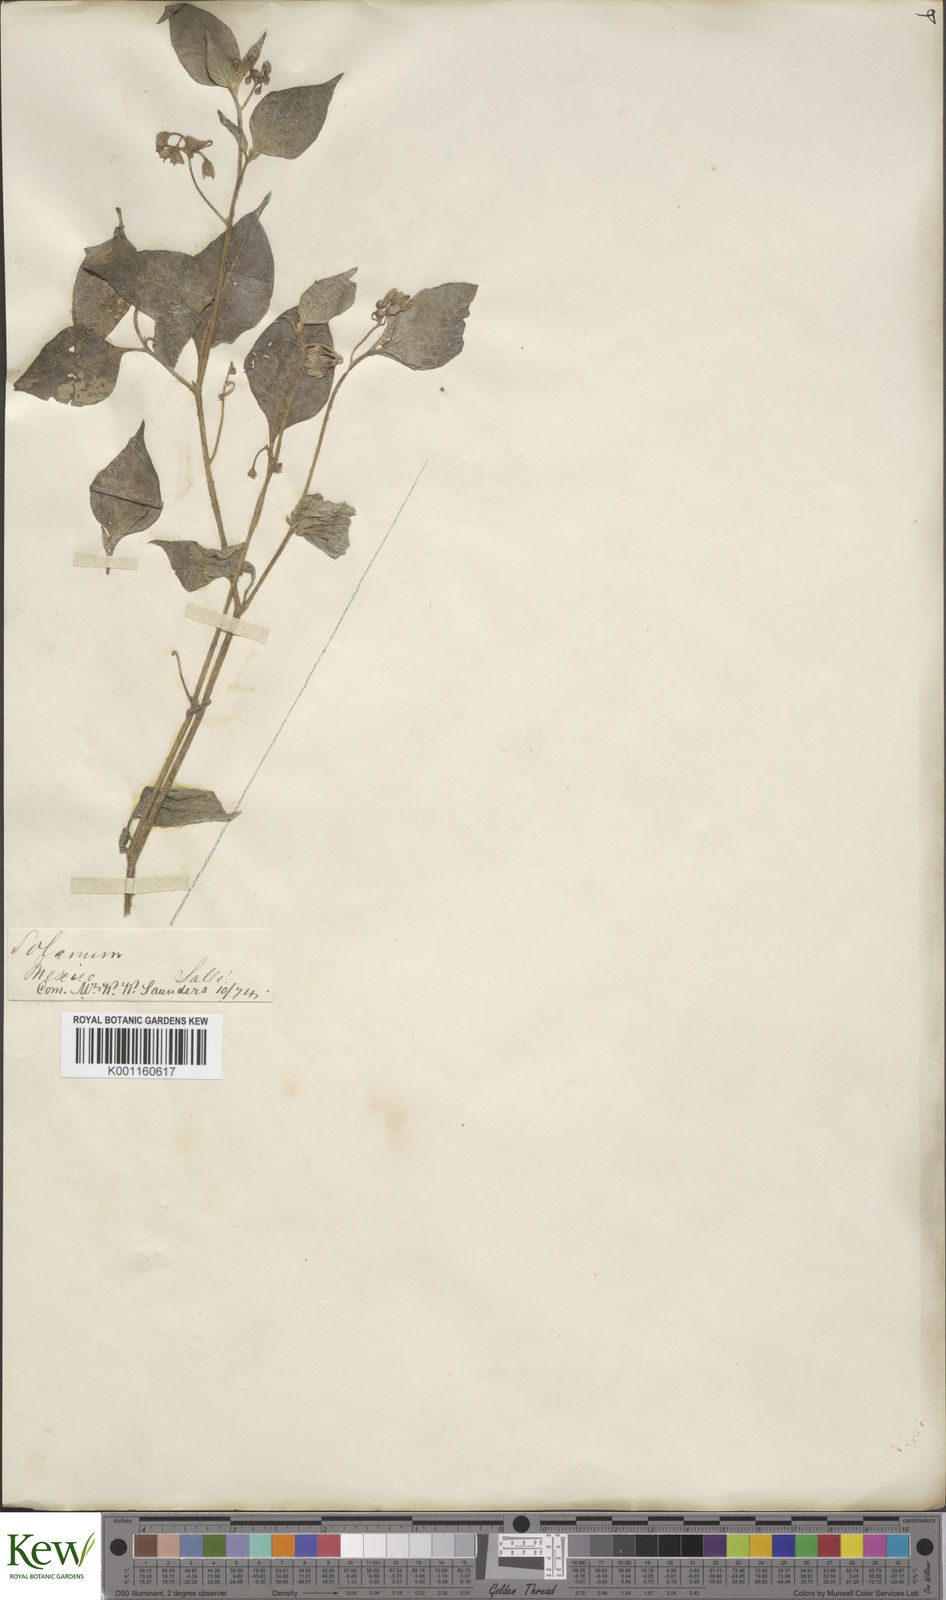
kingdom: Plantae
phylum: Tracheophyta
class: Magnoliopsida
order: Solanales
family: Solanaceae
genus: Solanum
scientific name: Solanum americanum
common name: American black nightshade
